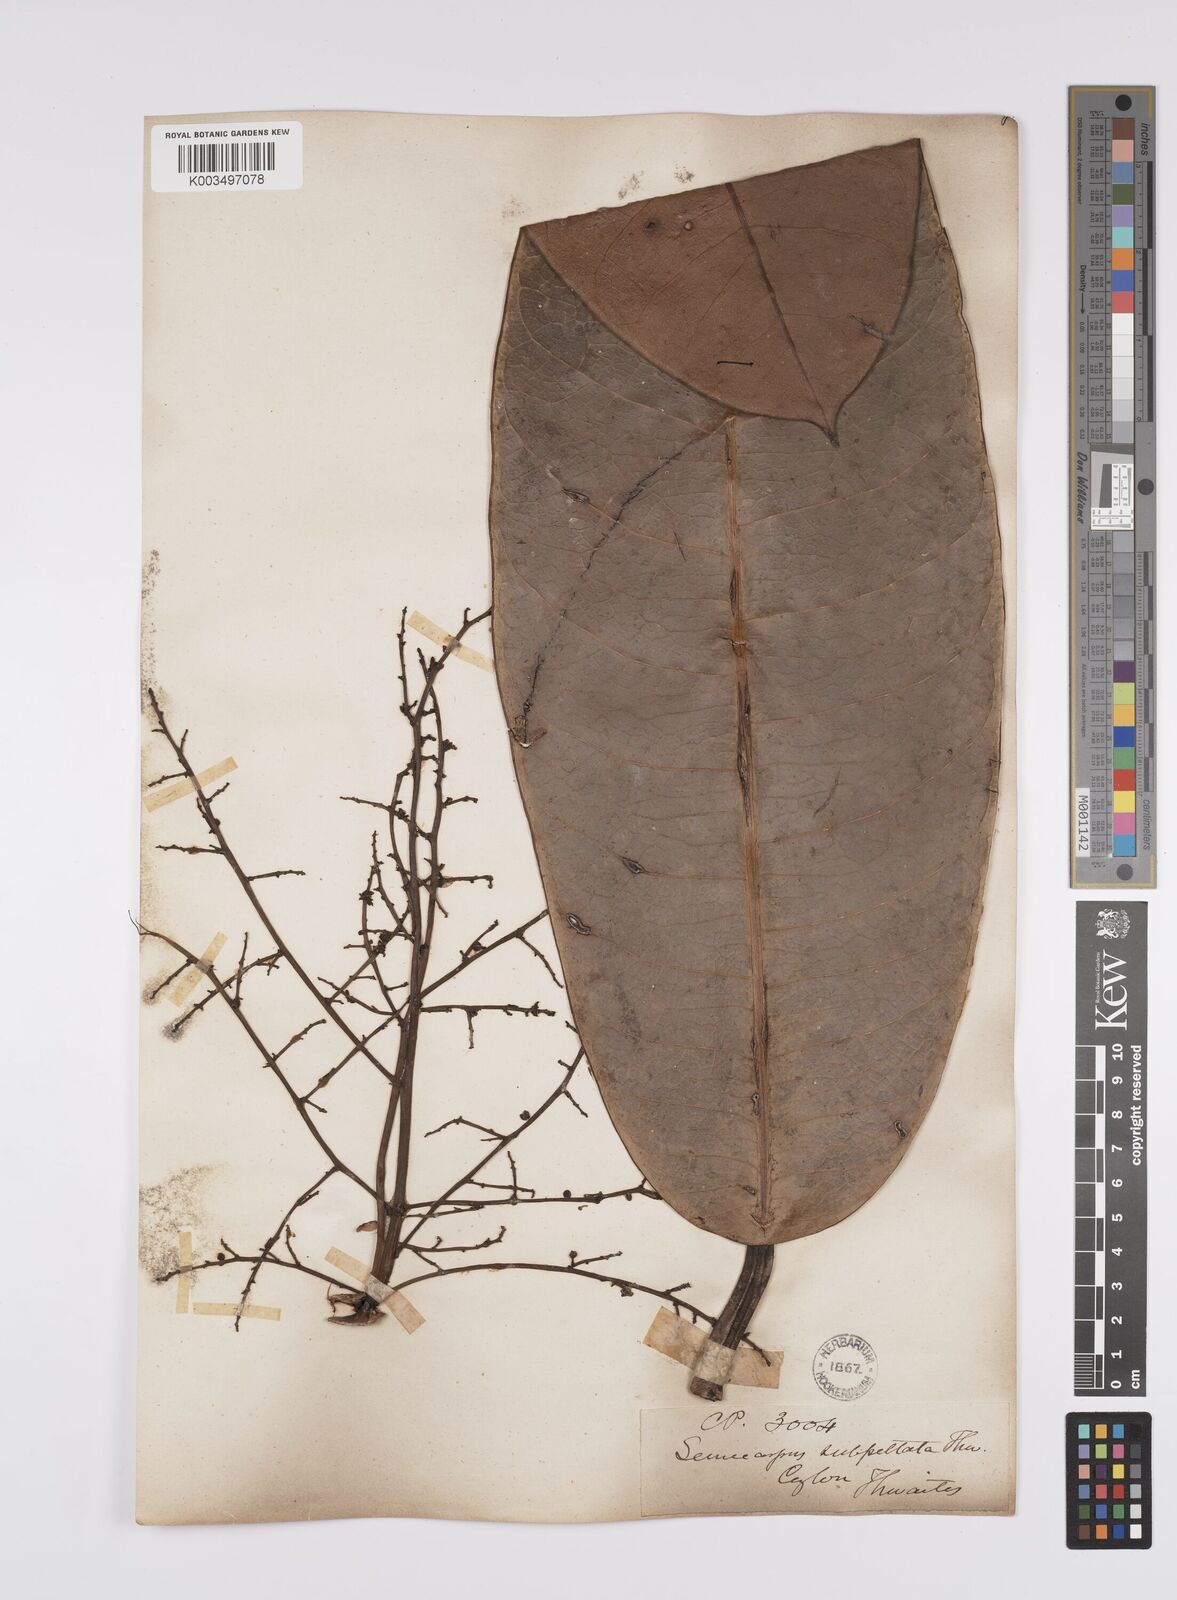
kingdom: Plantae
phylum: Tracheophyta
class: Magnoliopsida
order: Sapindales
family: Anacardiaceae
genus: Semecarpus
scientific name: Semecarpus subpeltatus
